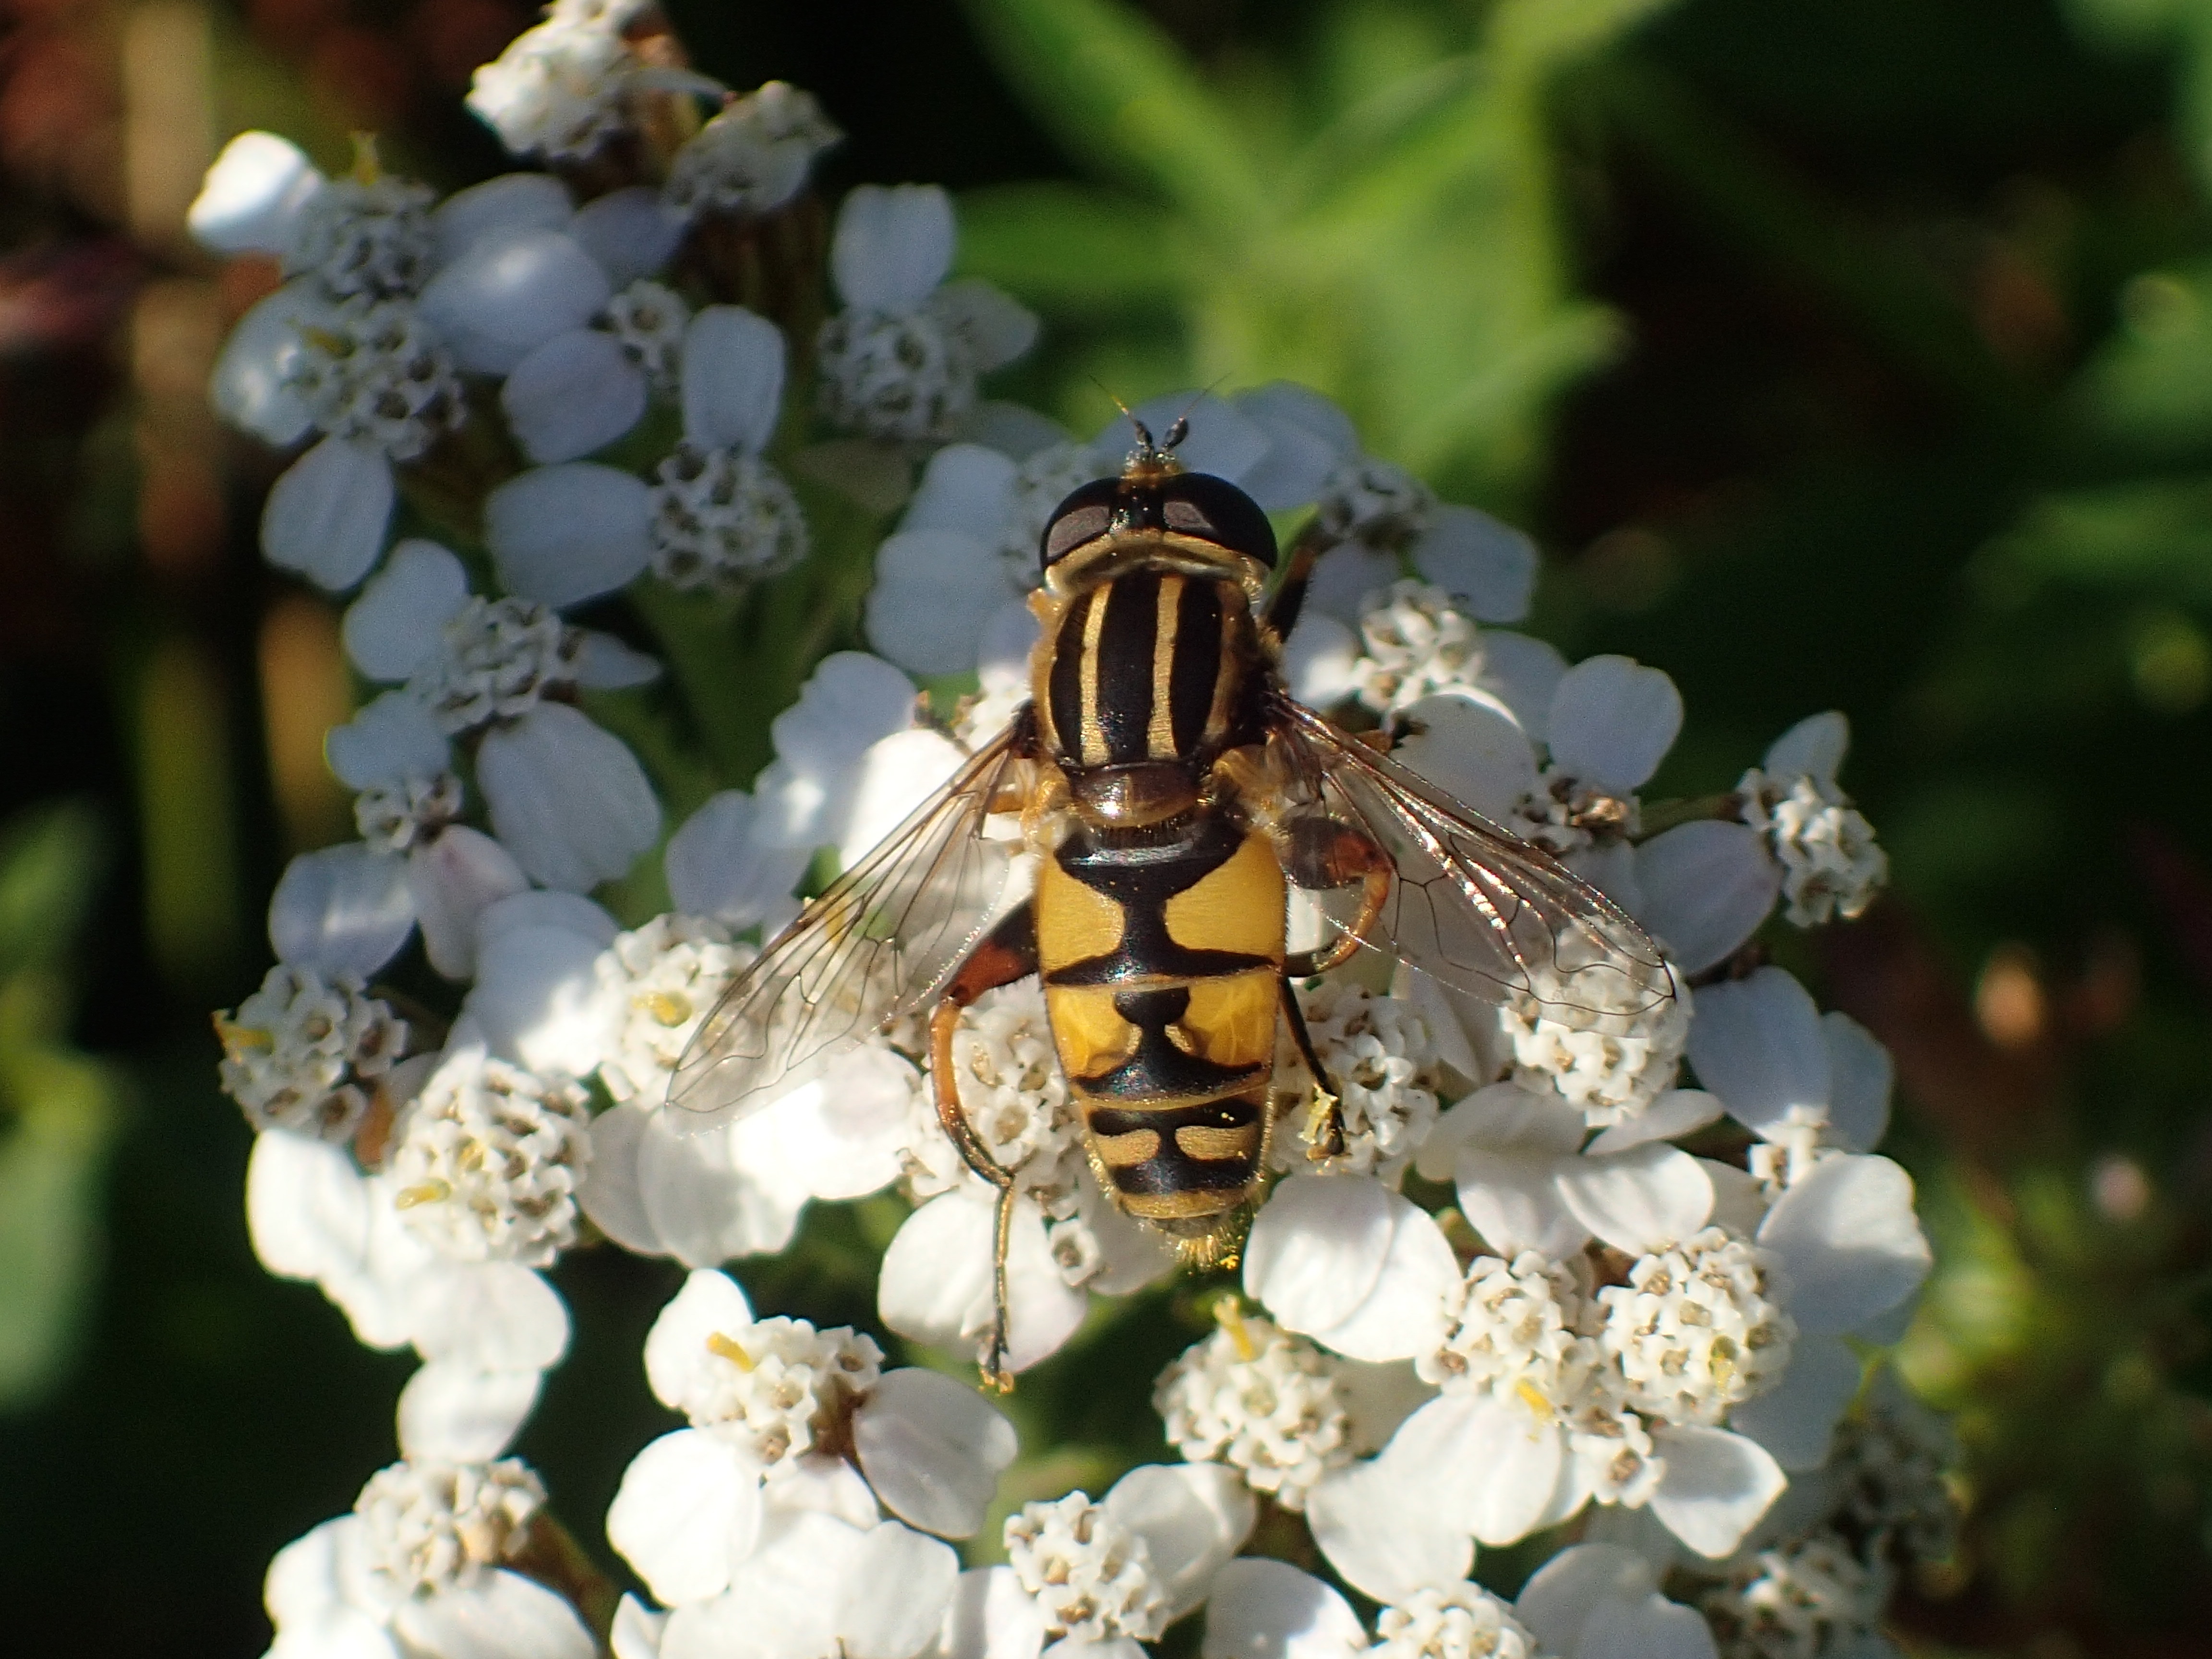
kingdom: Animalia
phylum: Arthropoda
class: Insecta
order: Diptera
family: Syrphidae
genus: Helophilus
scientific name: Helophilus pendulus
